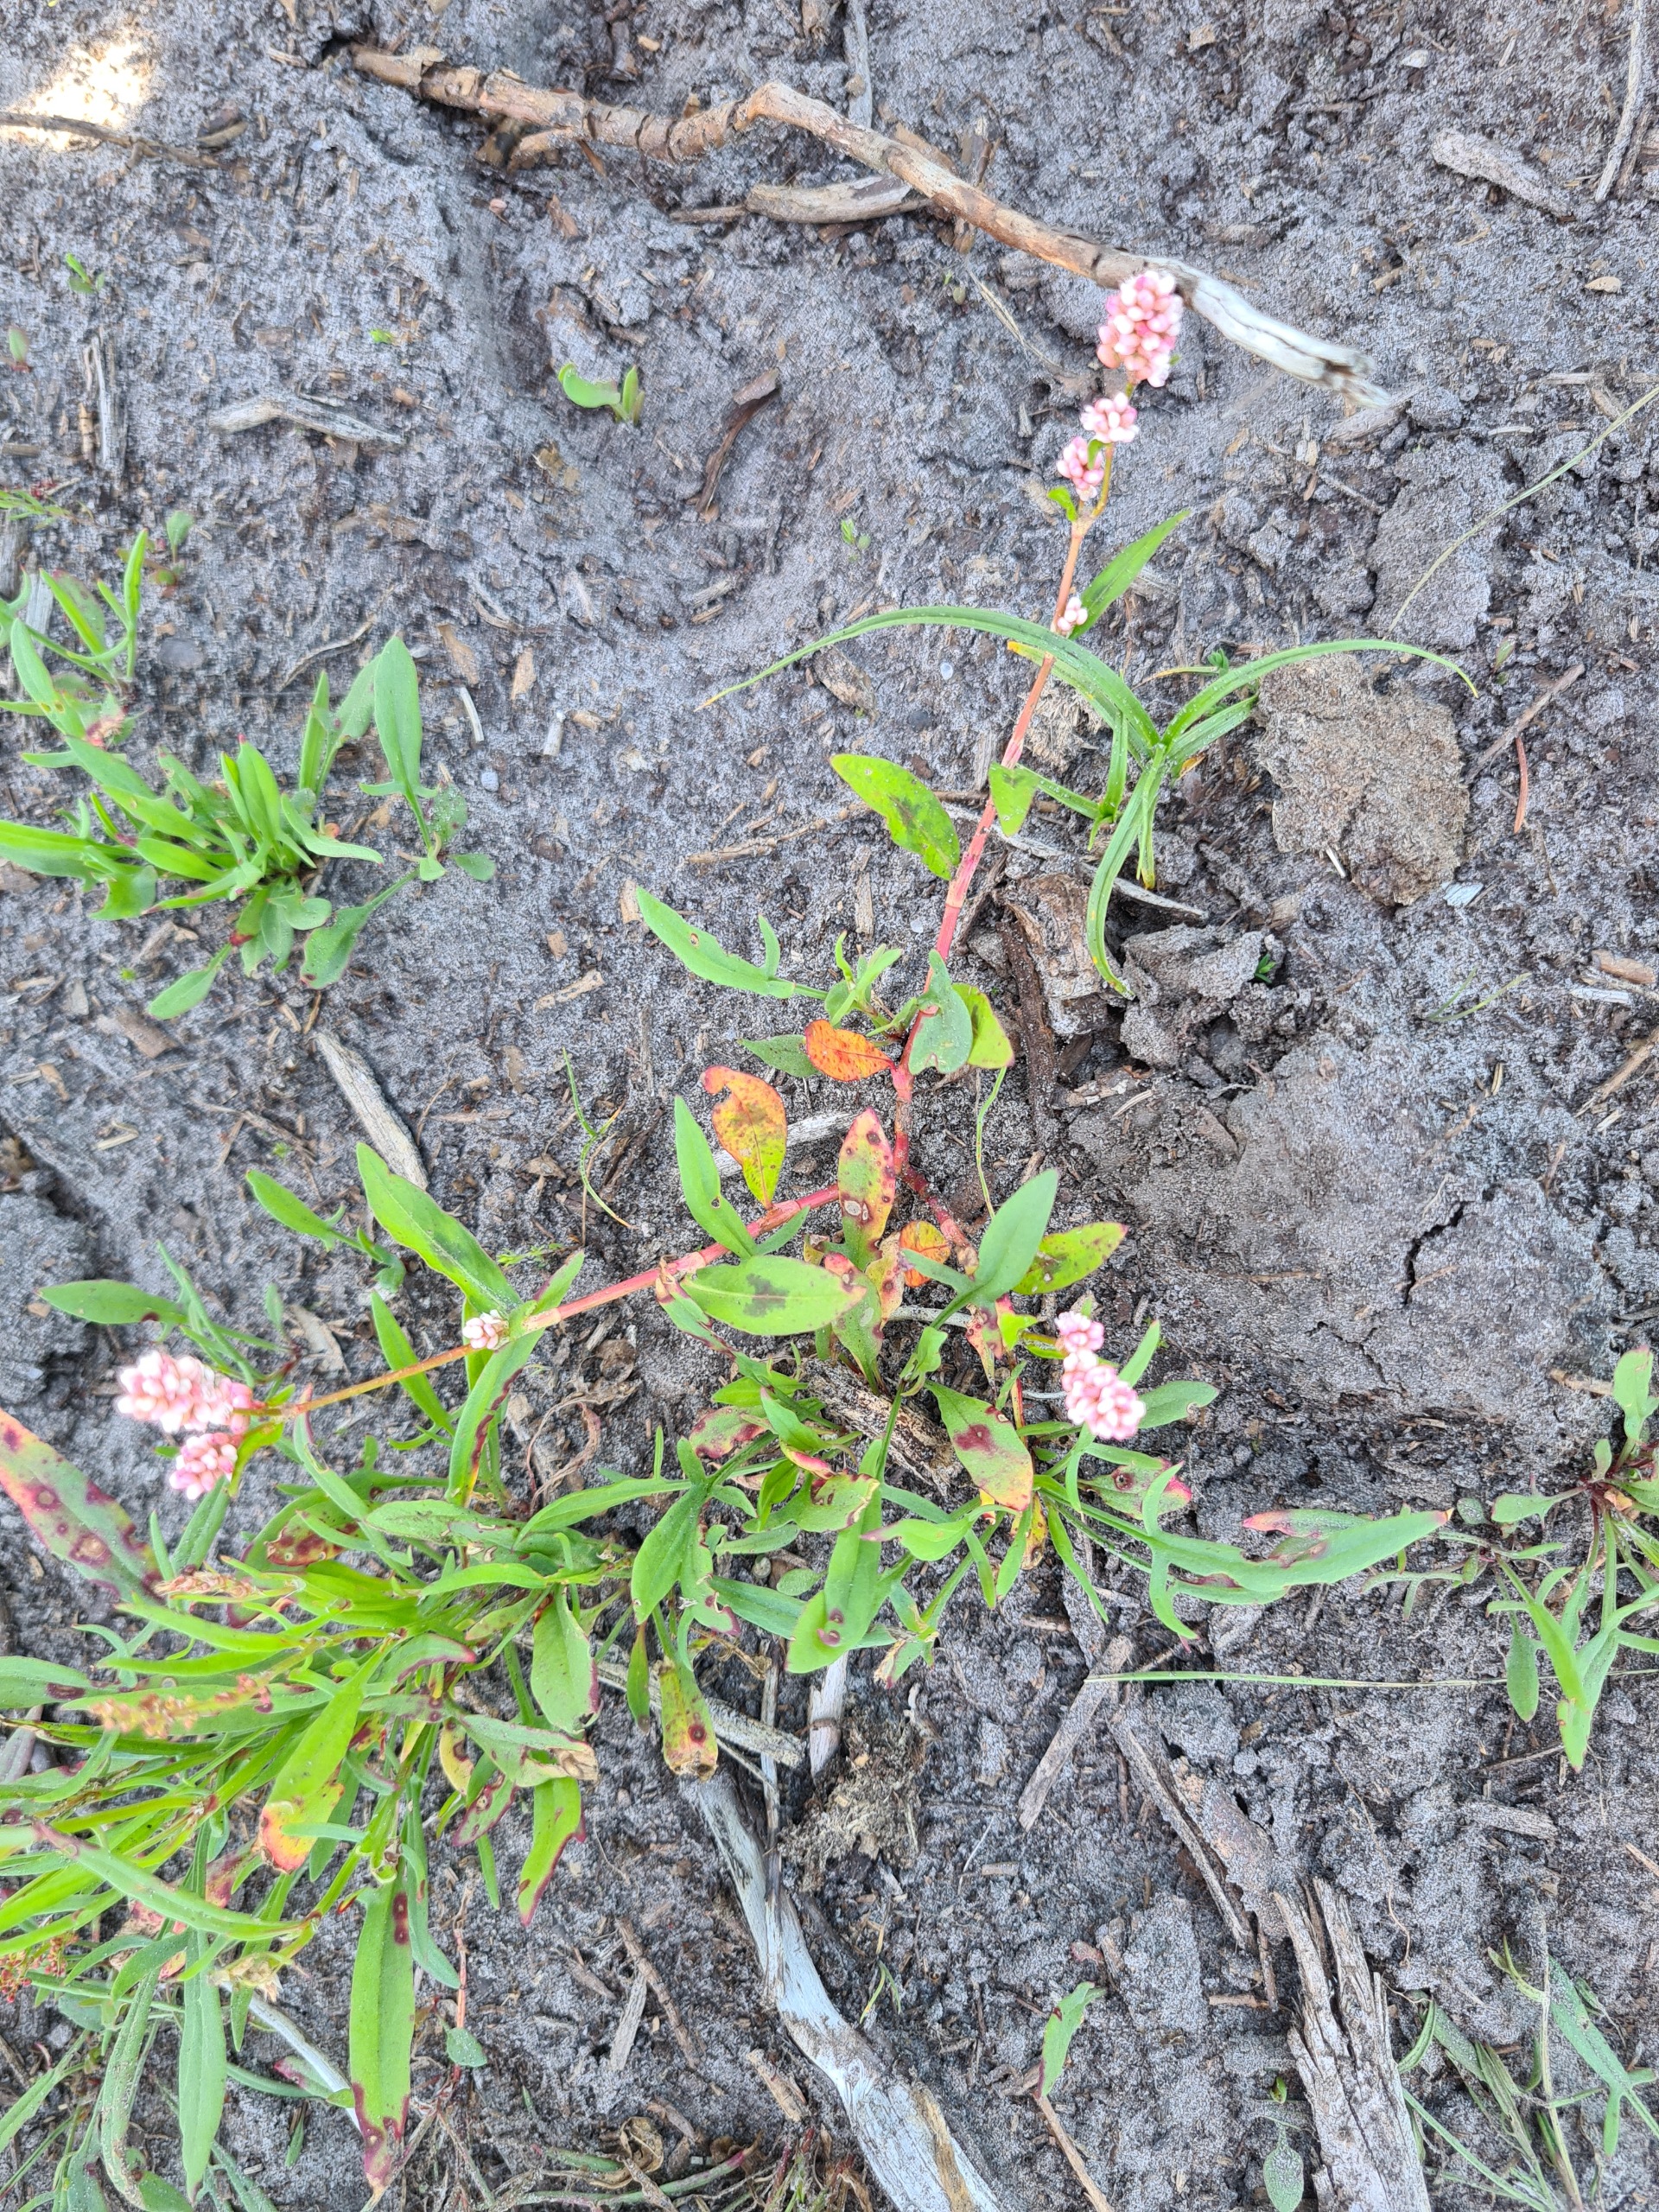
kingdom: Plantae
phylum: Tracheophyta
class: Magnoliopsida
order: Caryophyllales
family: Polygonaceae
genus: Persicaria
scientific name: Persicaria maculosa
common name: Fersken-pileurt
